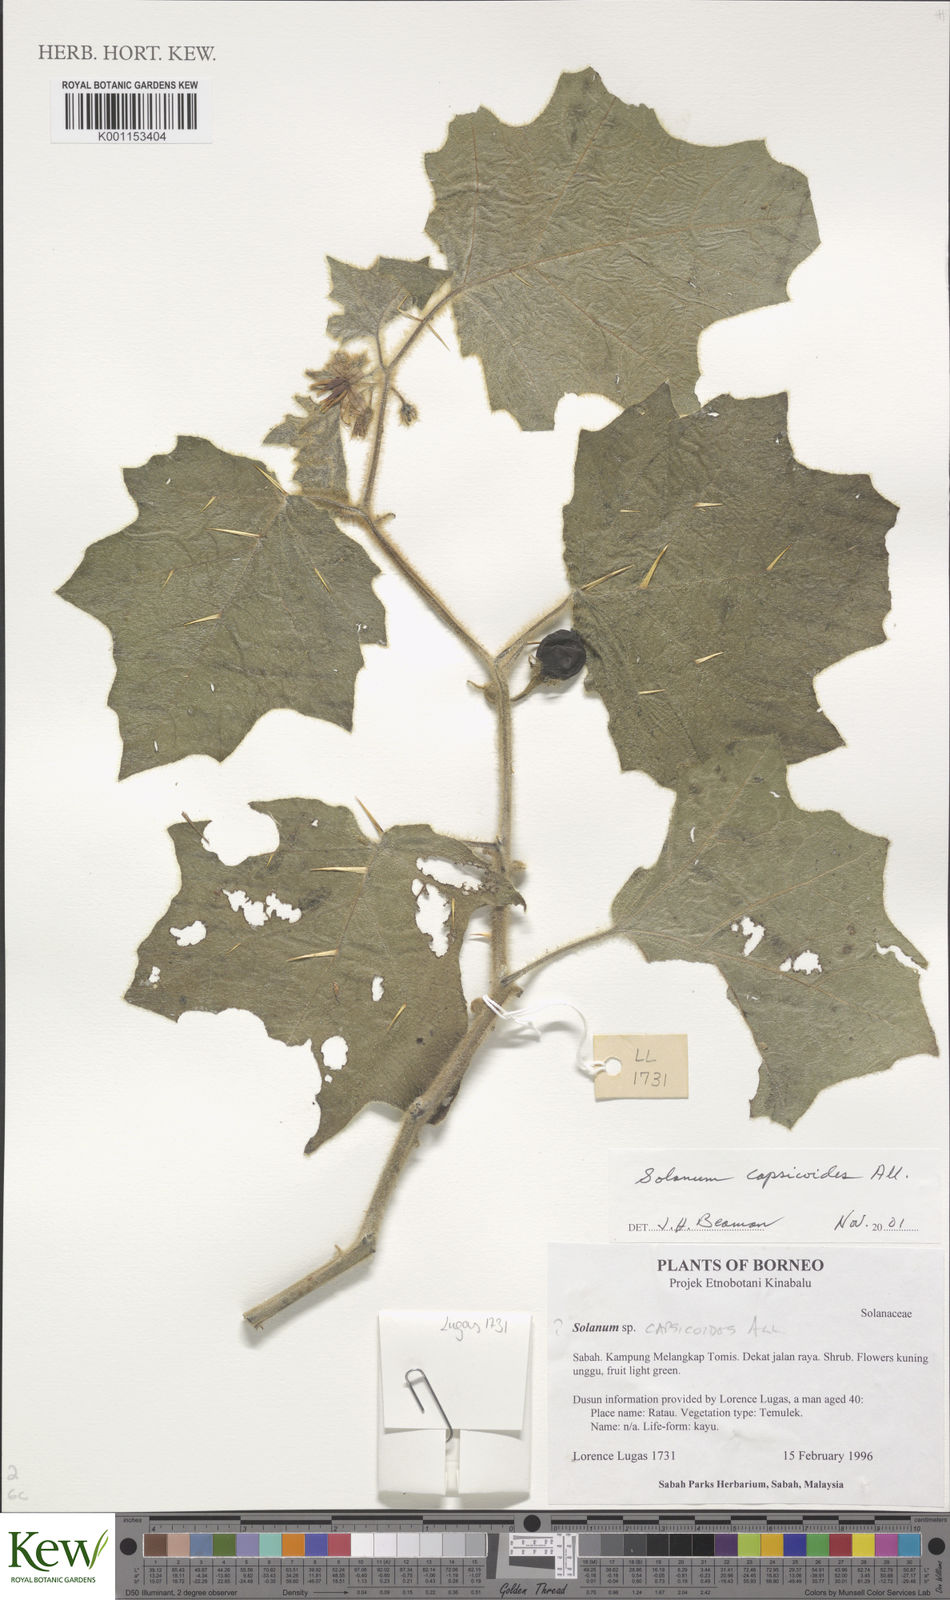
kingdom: Plantae
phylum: Tracheophyta
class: Magnoliopsida
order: Solanales
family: Solanaceae
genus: Solanum
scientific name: Solanum capsicoides
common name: Cockroach berry
